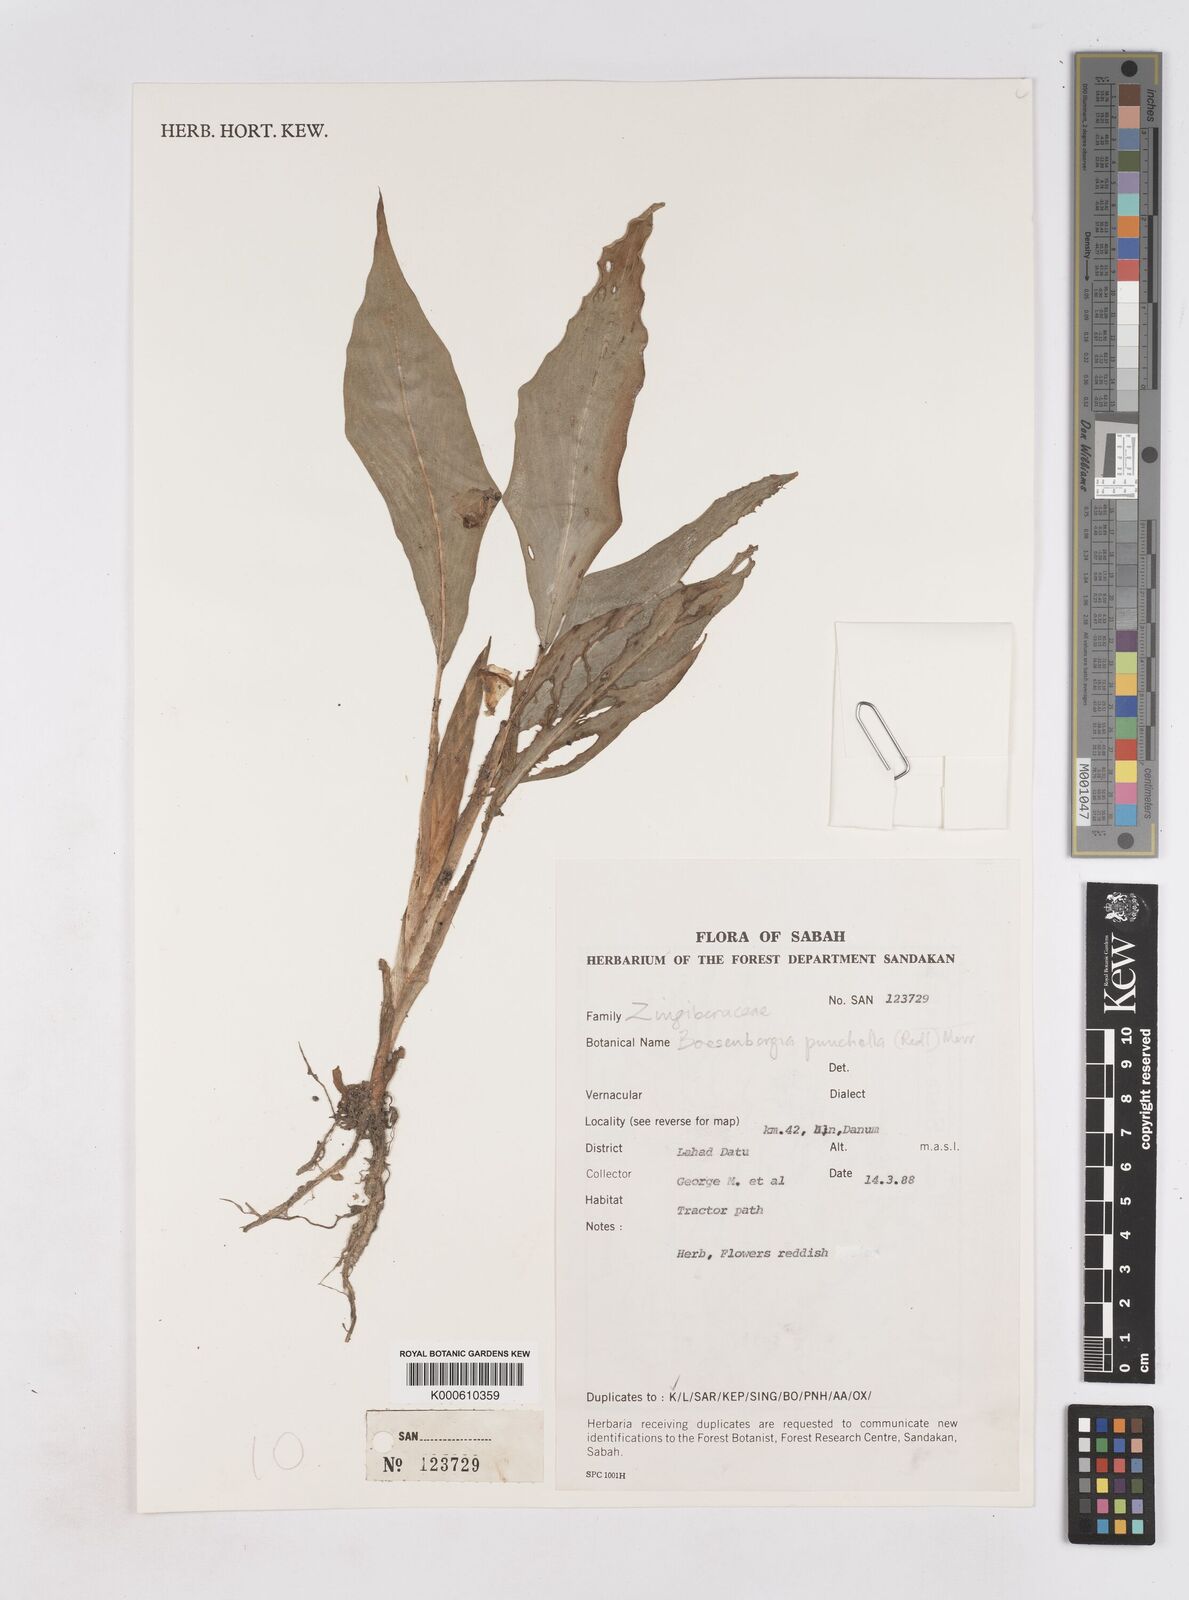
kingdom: Plantae
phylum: Tracheophyta
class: Liliopsida
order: Zingiberales
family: Zingiberaceae
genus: Boesenbergia
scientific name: Boesenbergia pulchella
